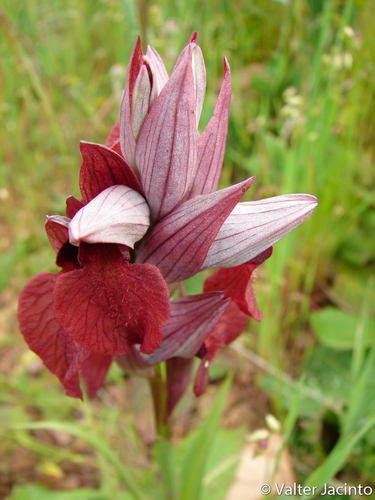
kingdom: Plantae
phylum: Tracheophyta
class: Liliopsida
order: Asparagales
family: Orchidaceae
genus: Serapias
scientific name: Serapias cordigera
